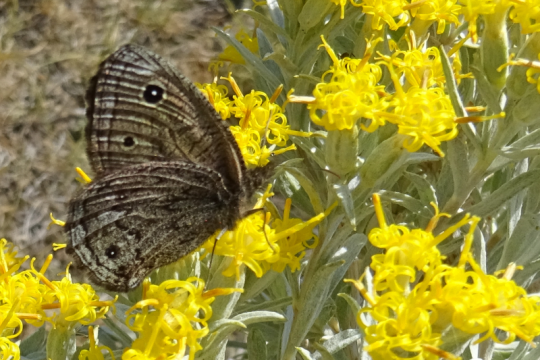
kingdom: Animalia
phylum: Arthropoda
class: Insecta
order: Lepidoptera
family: Nymphalidae
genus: Cercyonis
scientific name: Cercyonis oetus
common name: Small Wood-Nymph
